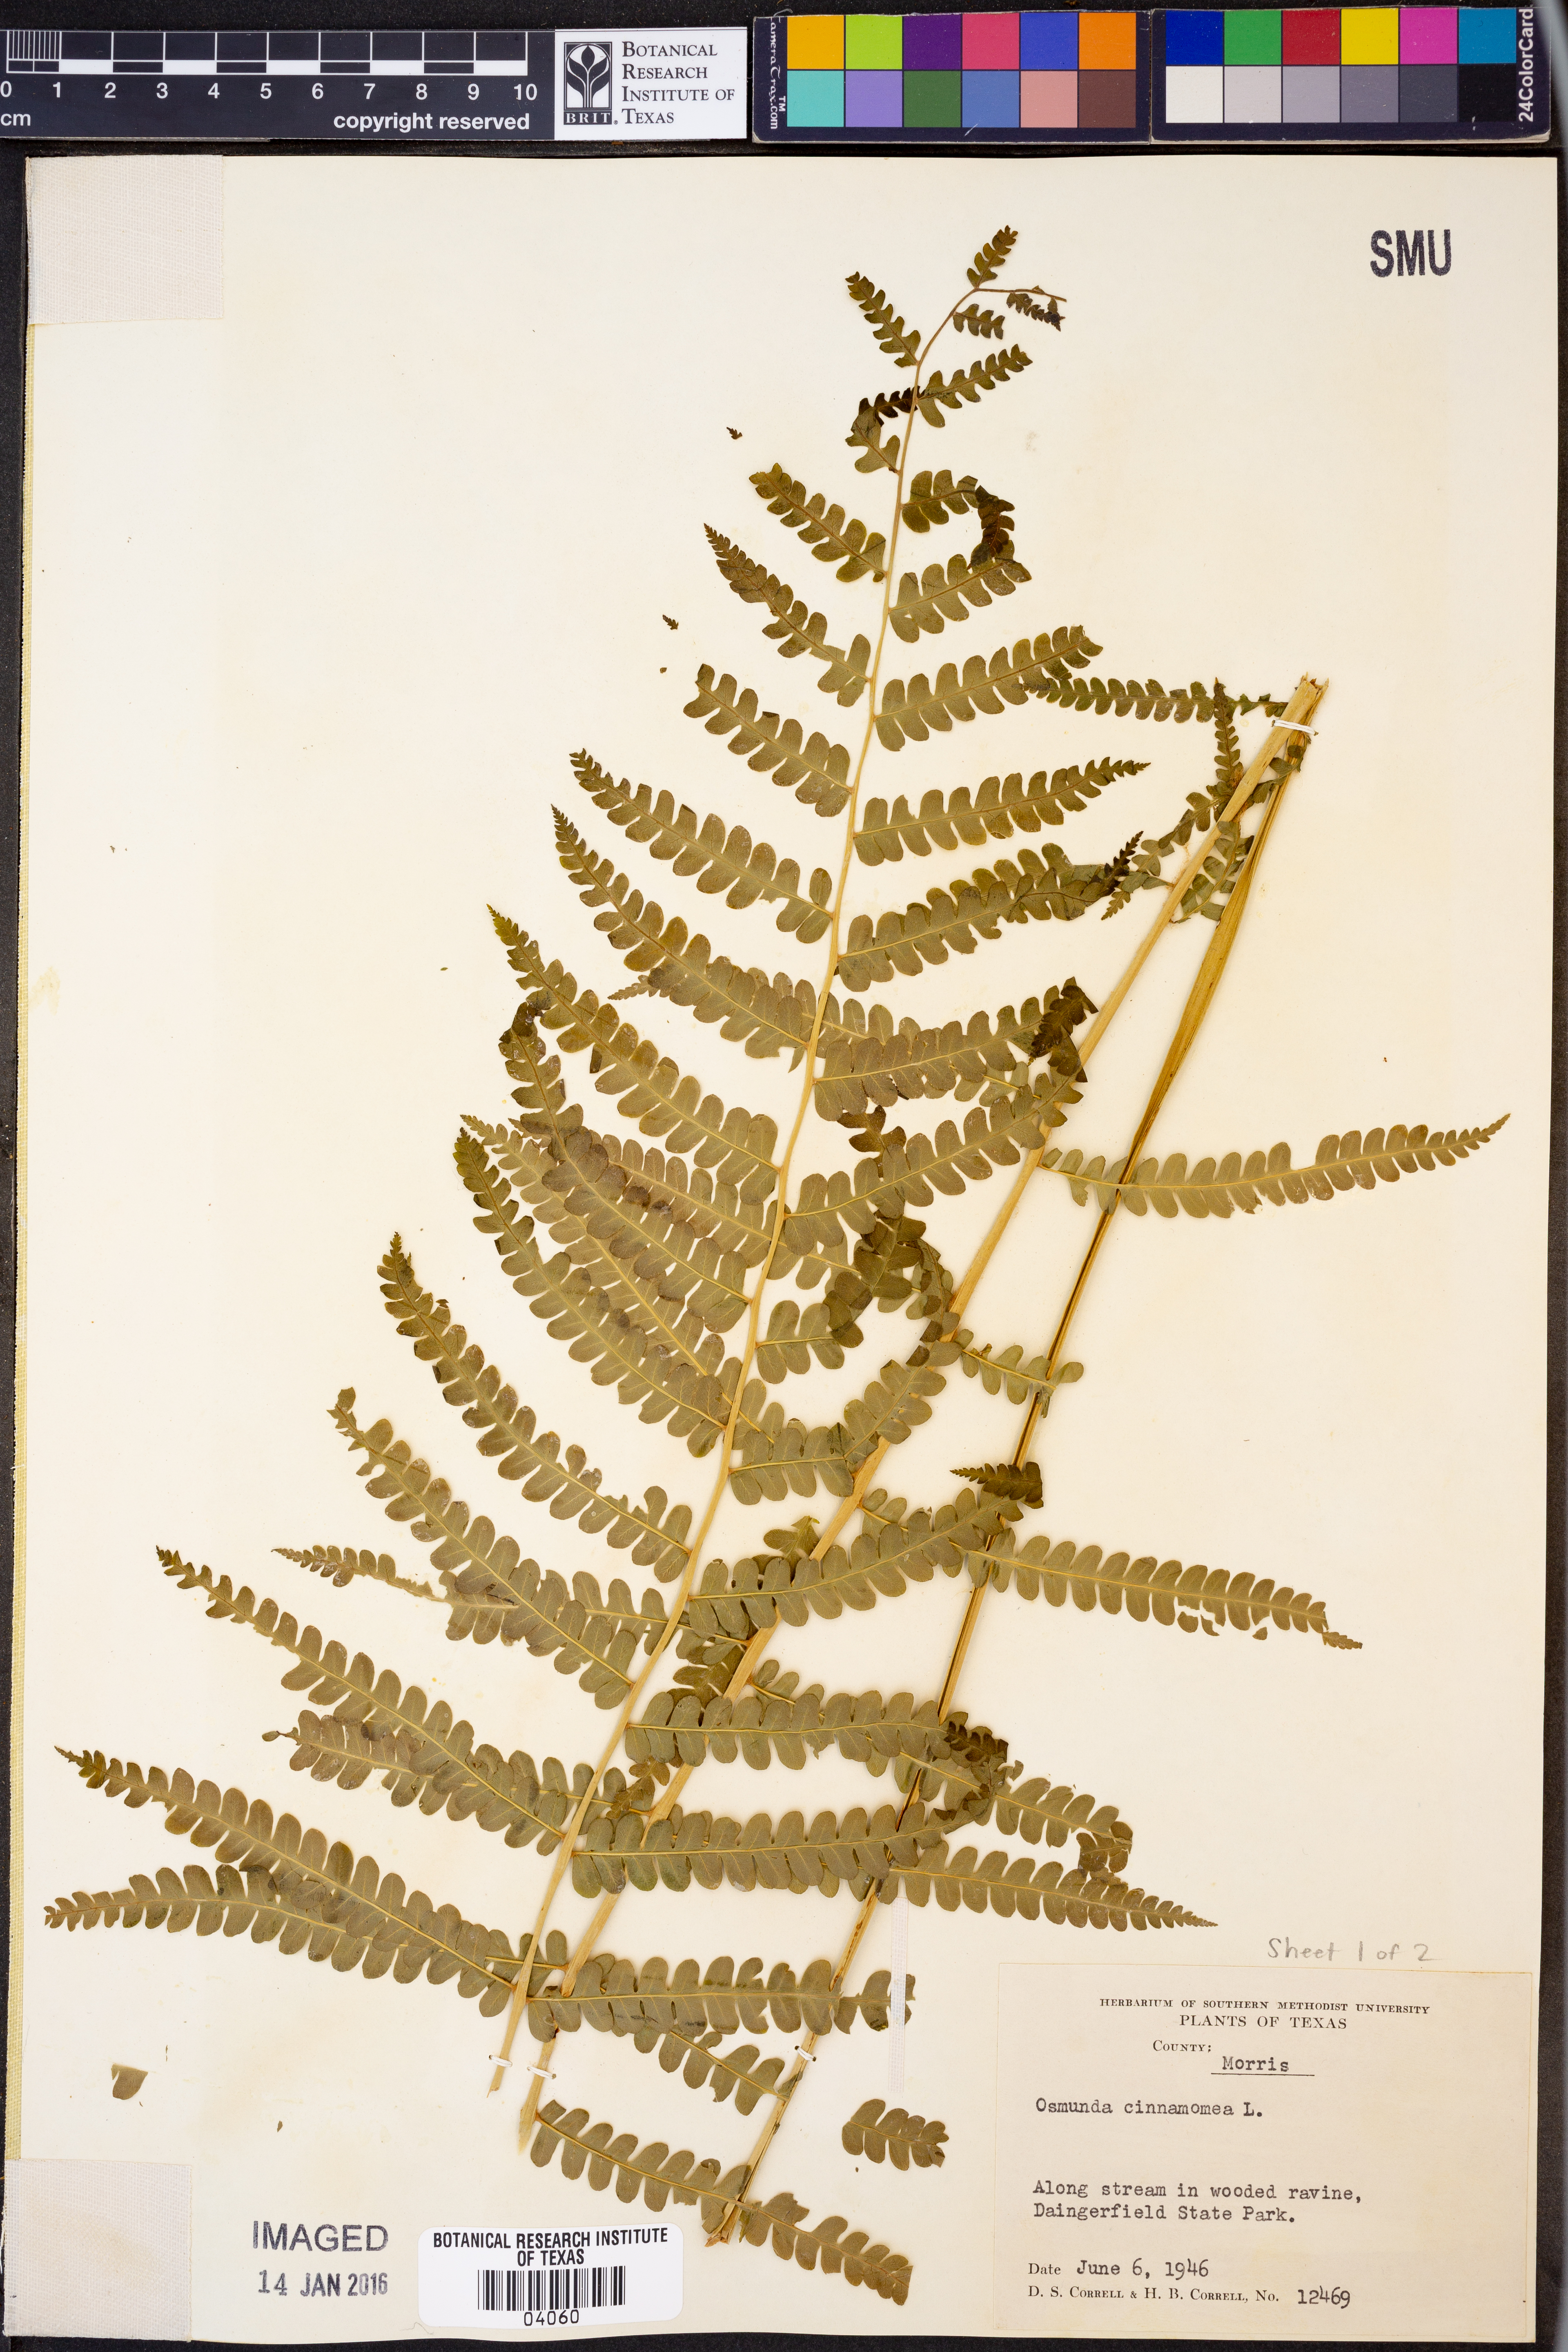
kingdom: Plantae
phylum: Tracheophyta
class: Polypodiopsida
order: Osmundales
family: Osmundaceae
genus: Osmundastrum
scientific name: Osmundastrum cinnamomeum
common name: Cinnamon fern
